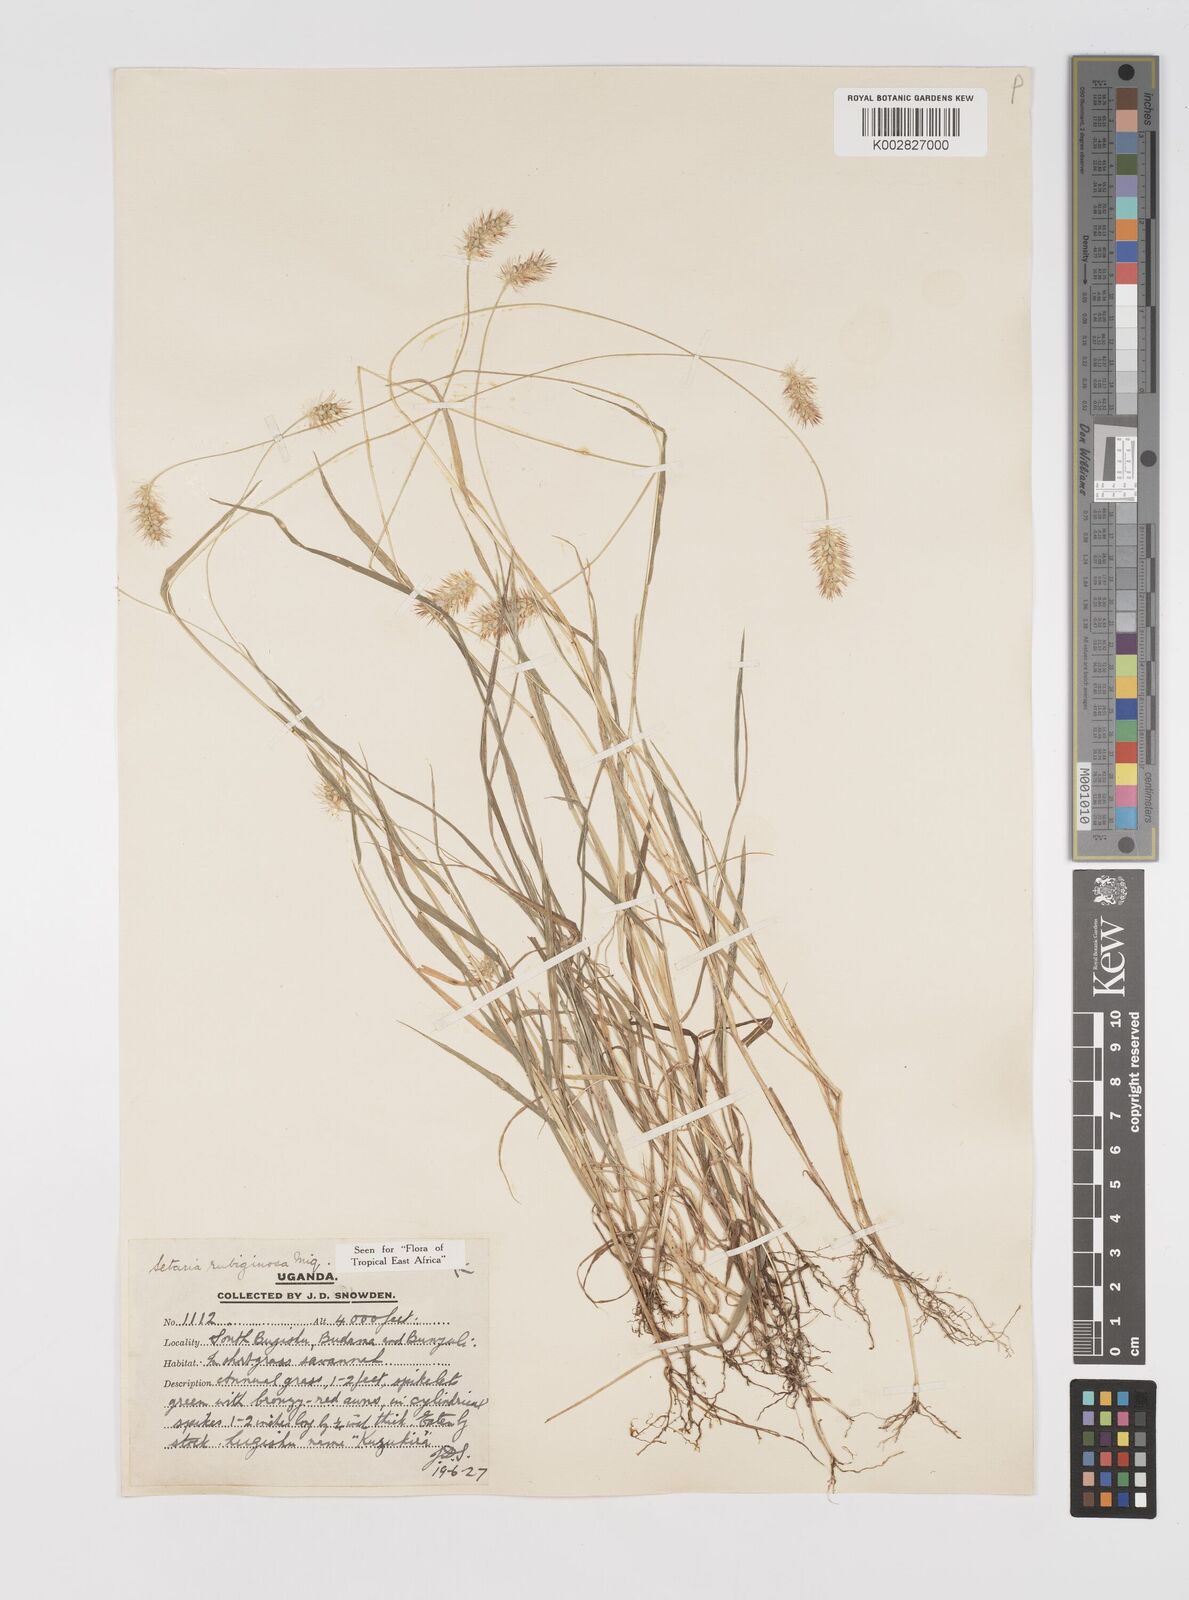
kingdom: Plantae
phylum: Tracheophyta
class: Liliopsida
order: Poales
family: Poaceae
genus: Setaria
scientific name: Setaria pumila
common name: Yellow bristle-grass
